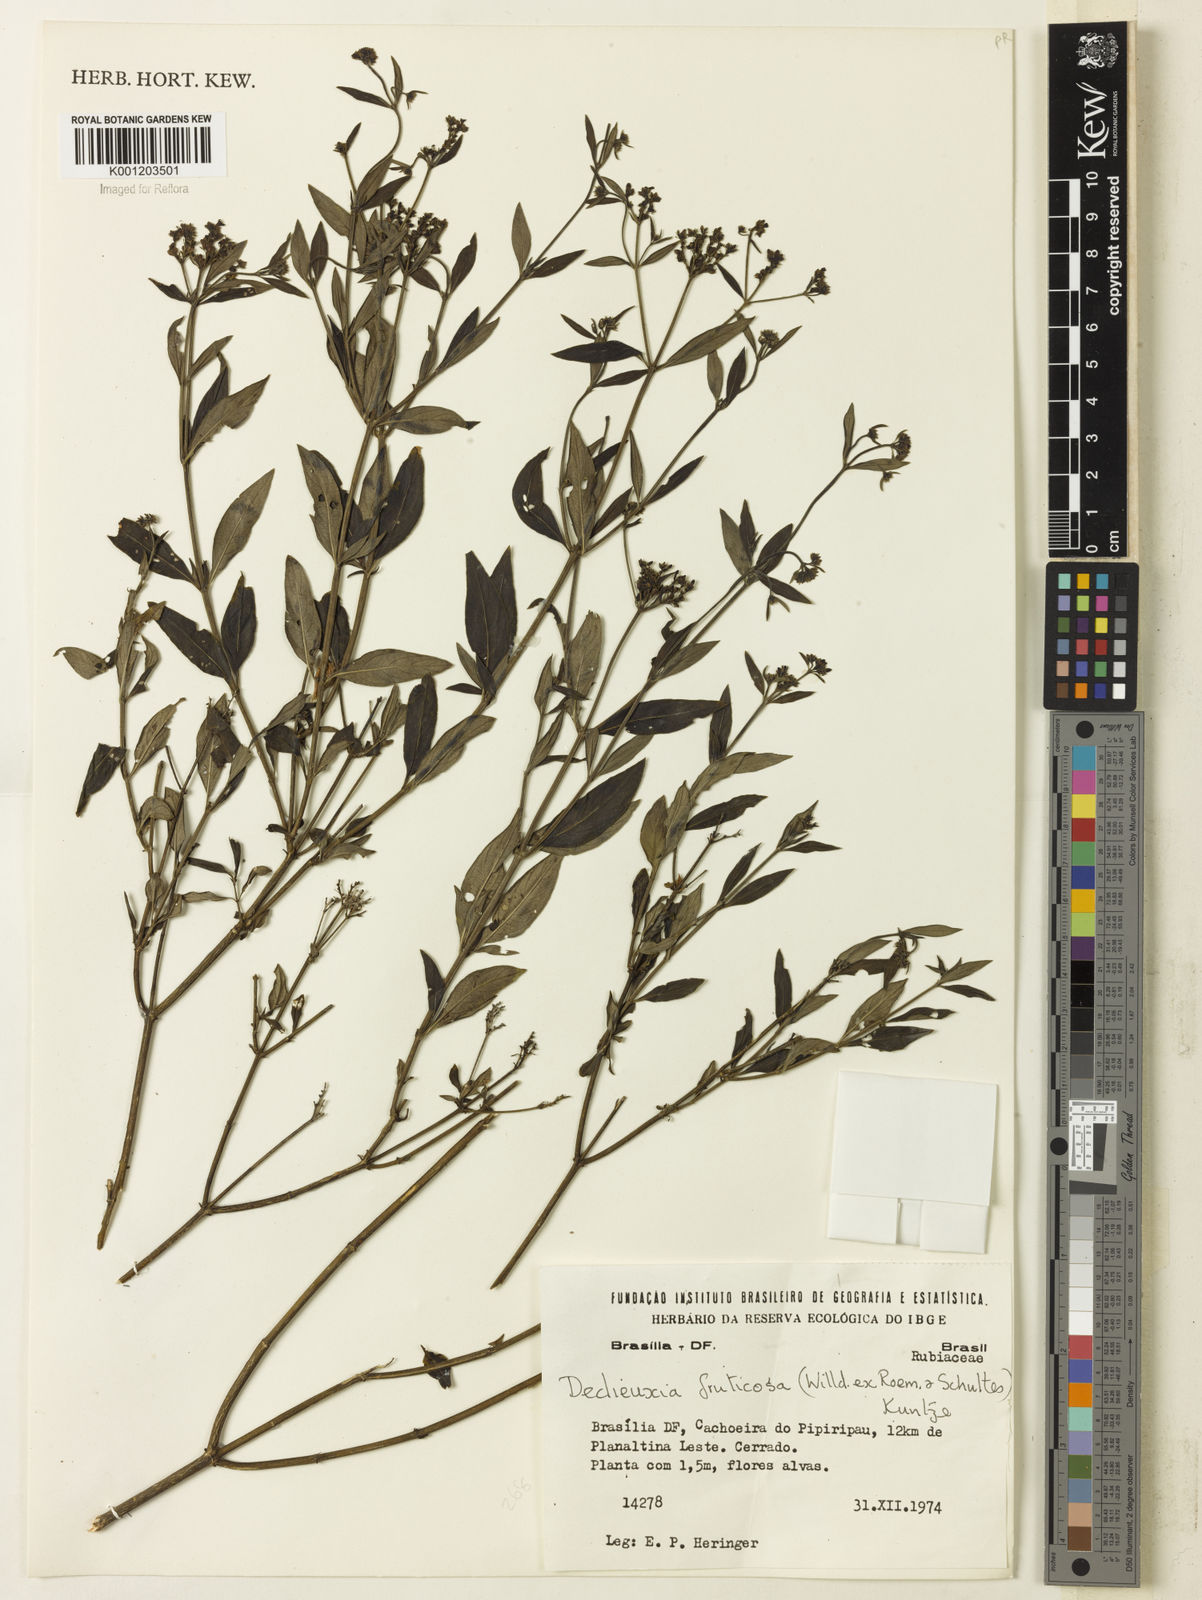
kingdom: Plantae
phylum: Tracheophyta
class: Magnoliopsida
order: Gentianales
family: Rubiaceae
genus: Declieuxia
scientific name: Declieuxia fruticosa
